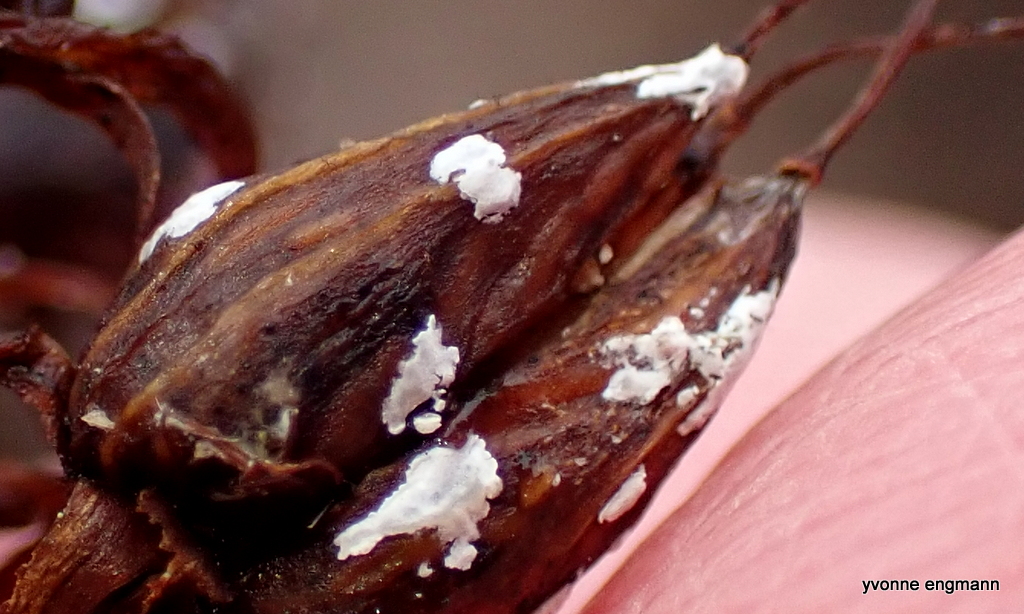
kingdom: Fungi
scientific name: Fungi
